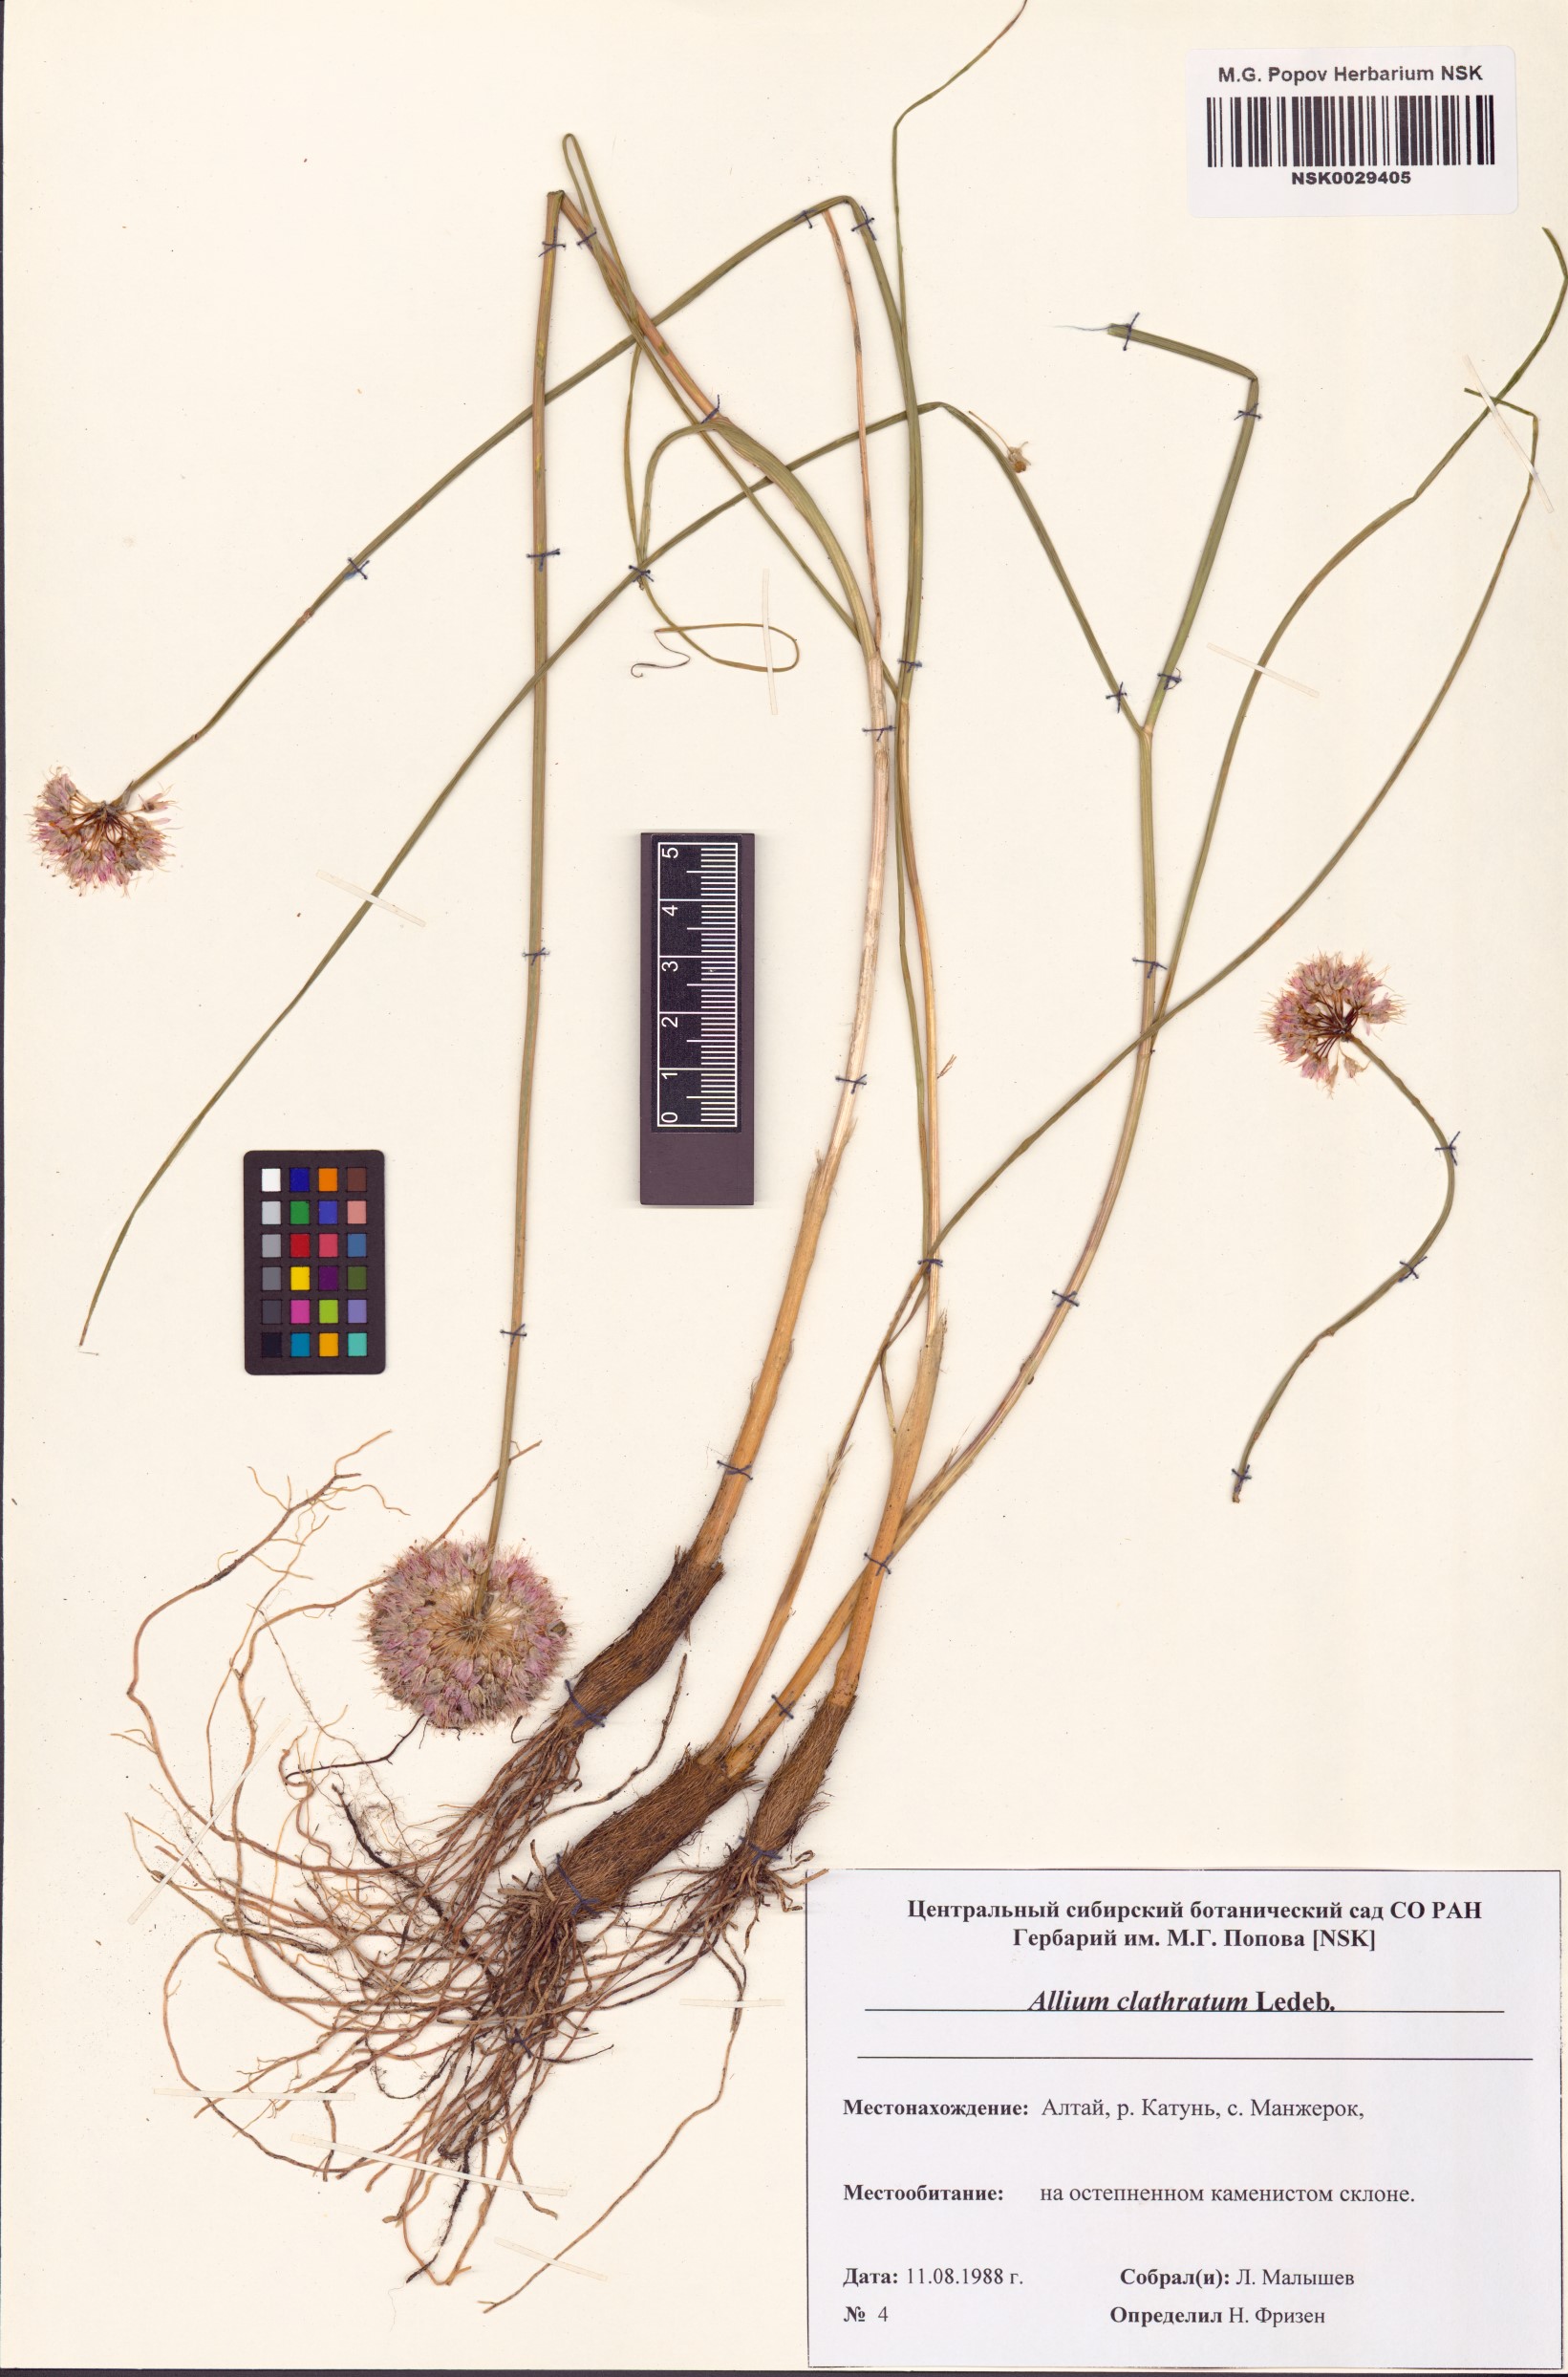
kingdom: Plantae
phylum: Tracheophyta
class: Liliopsida
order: Asparagales
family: Amaryllidaceae
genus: Allium
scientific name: Allium clathratum
